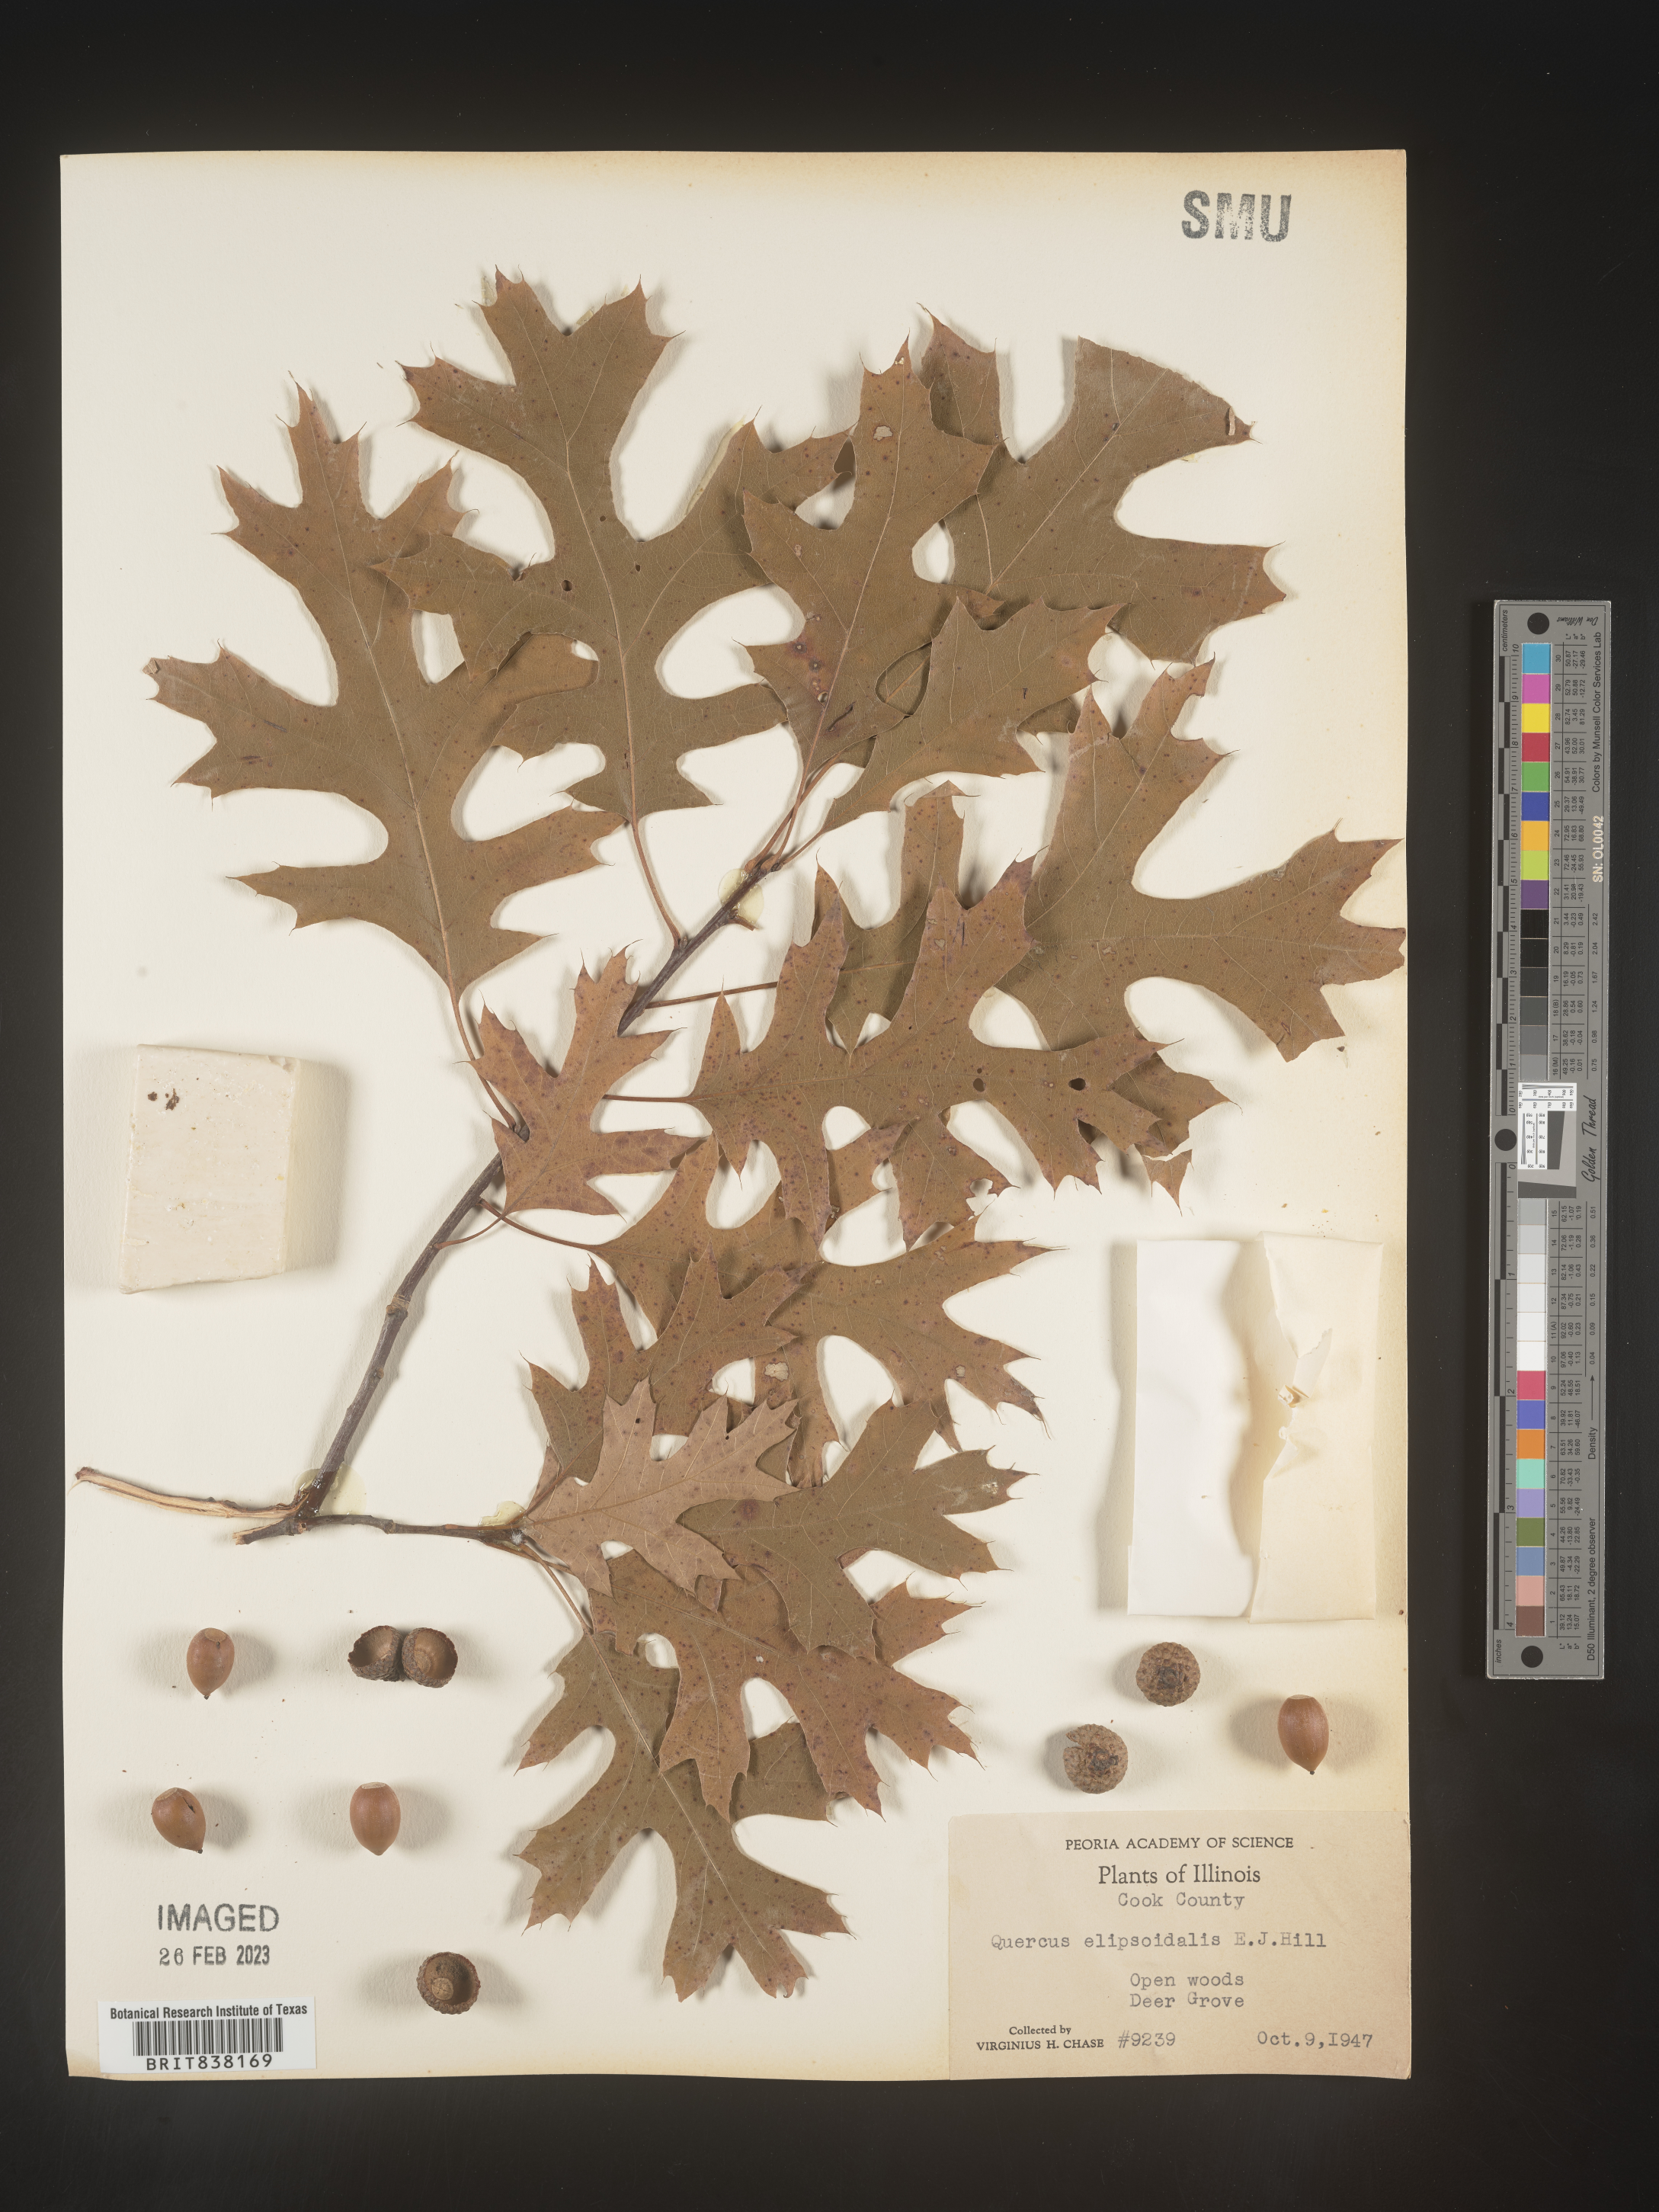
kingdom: Plantae
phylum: Tracheophyta
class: Magnoliopsida
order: Fagales
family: Fagaceae
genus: Quercus
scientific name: Quercus ellipsoidalis
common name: Hill's oak
